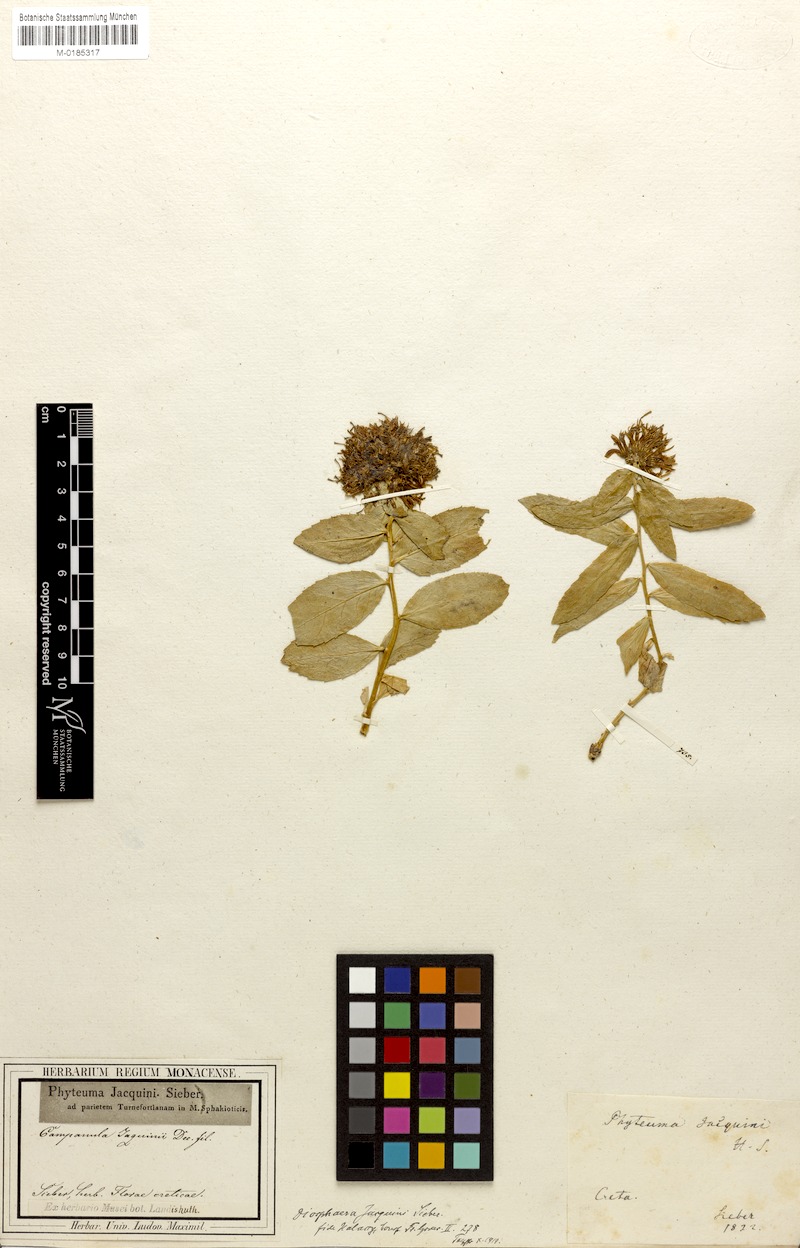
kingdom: Plantae
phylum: Tracheophyta
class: Magnoliopsida
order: Asterales
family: Campanulaceae
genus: Campanula
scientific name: Campanula jacquinii
